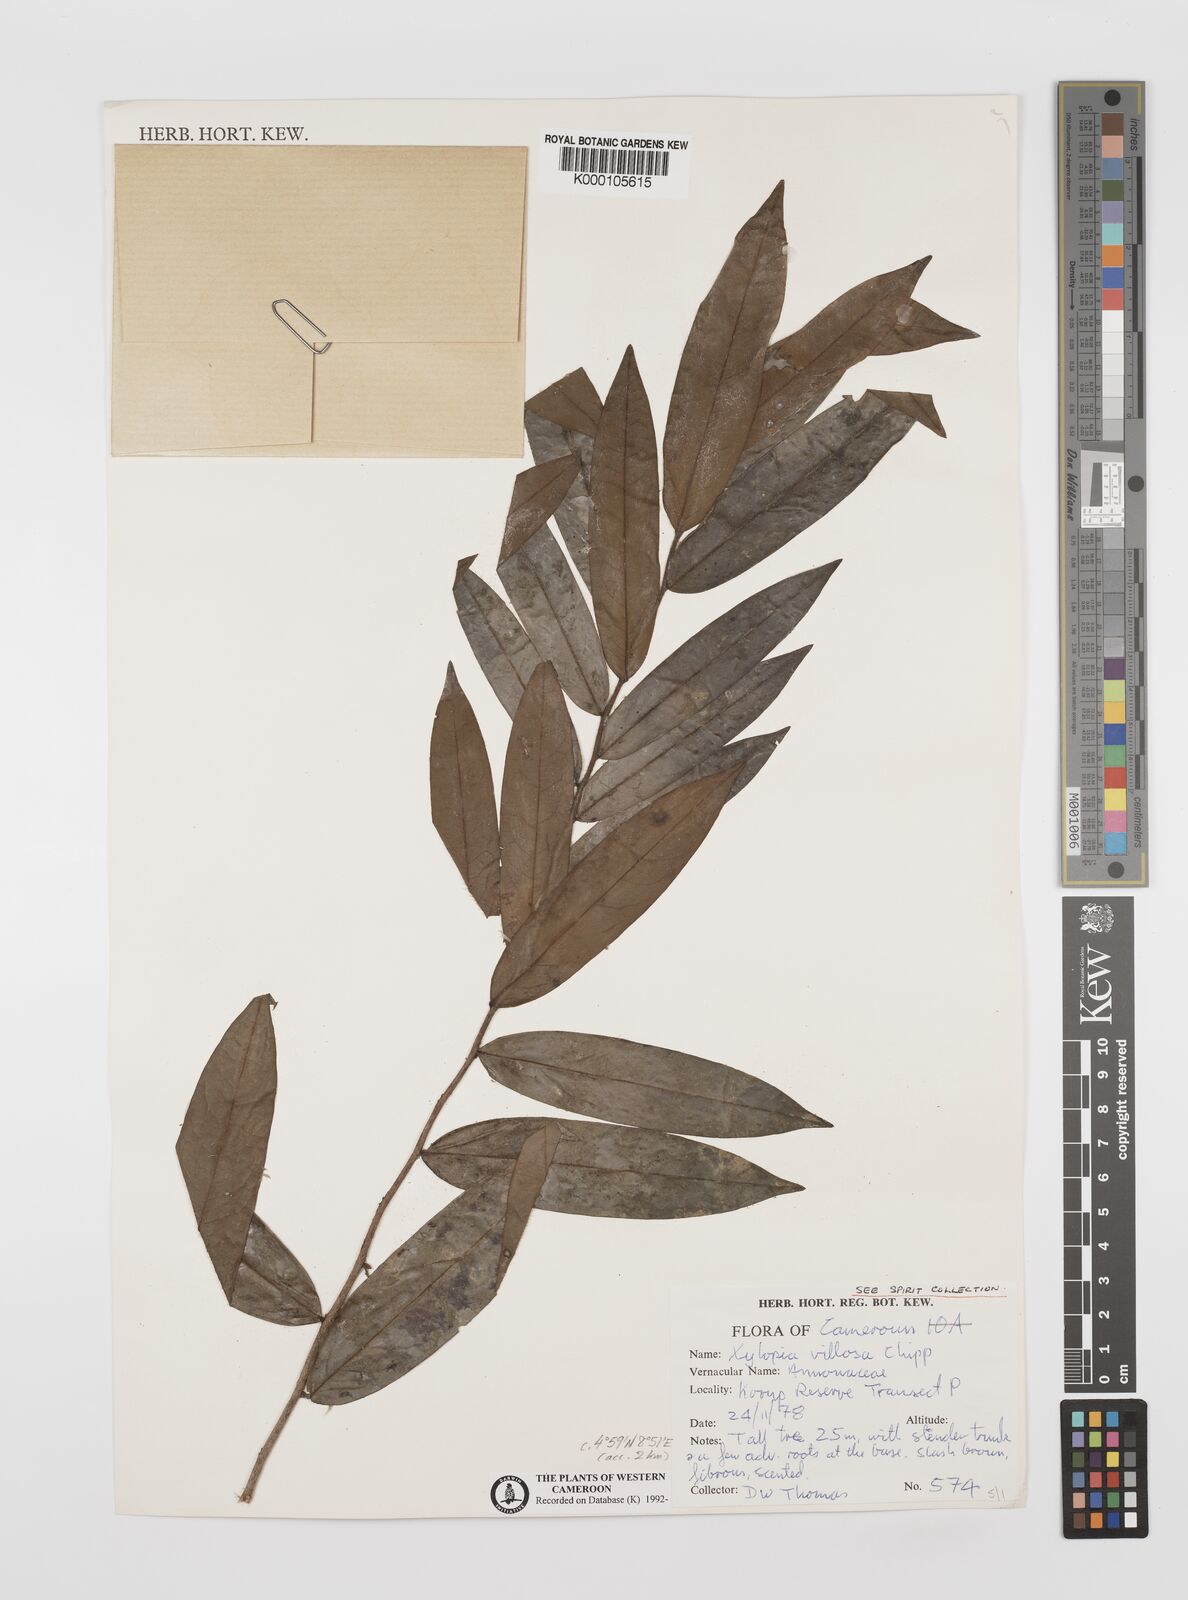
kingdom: Plantae
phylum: Tracheophyta
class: Magnoliopsida
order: Magnoliales
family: Annonaceae
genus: Xylopia
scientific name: Xylopia villosa
